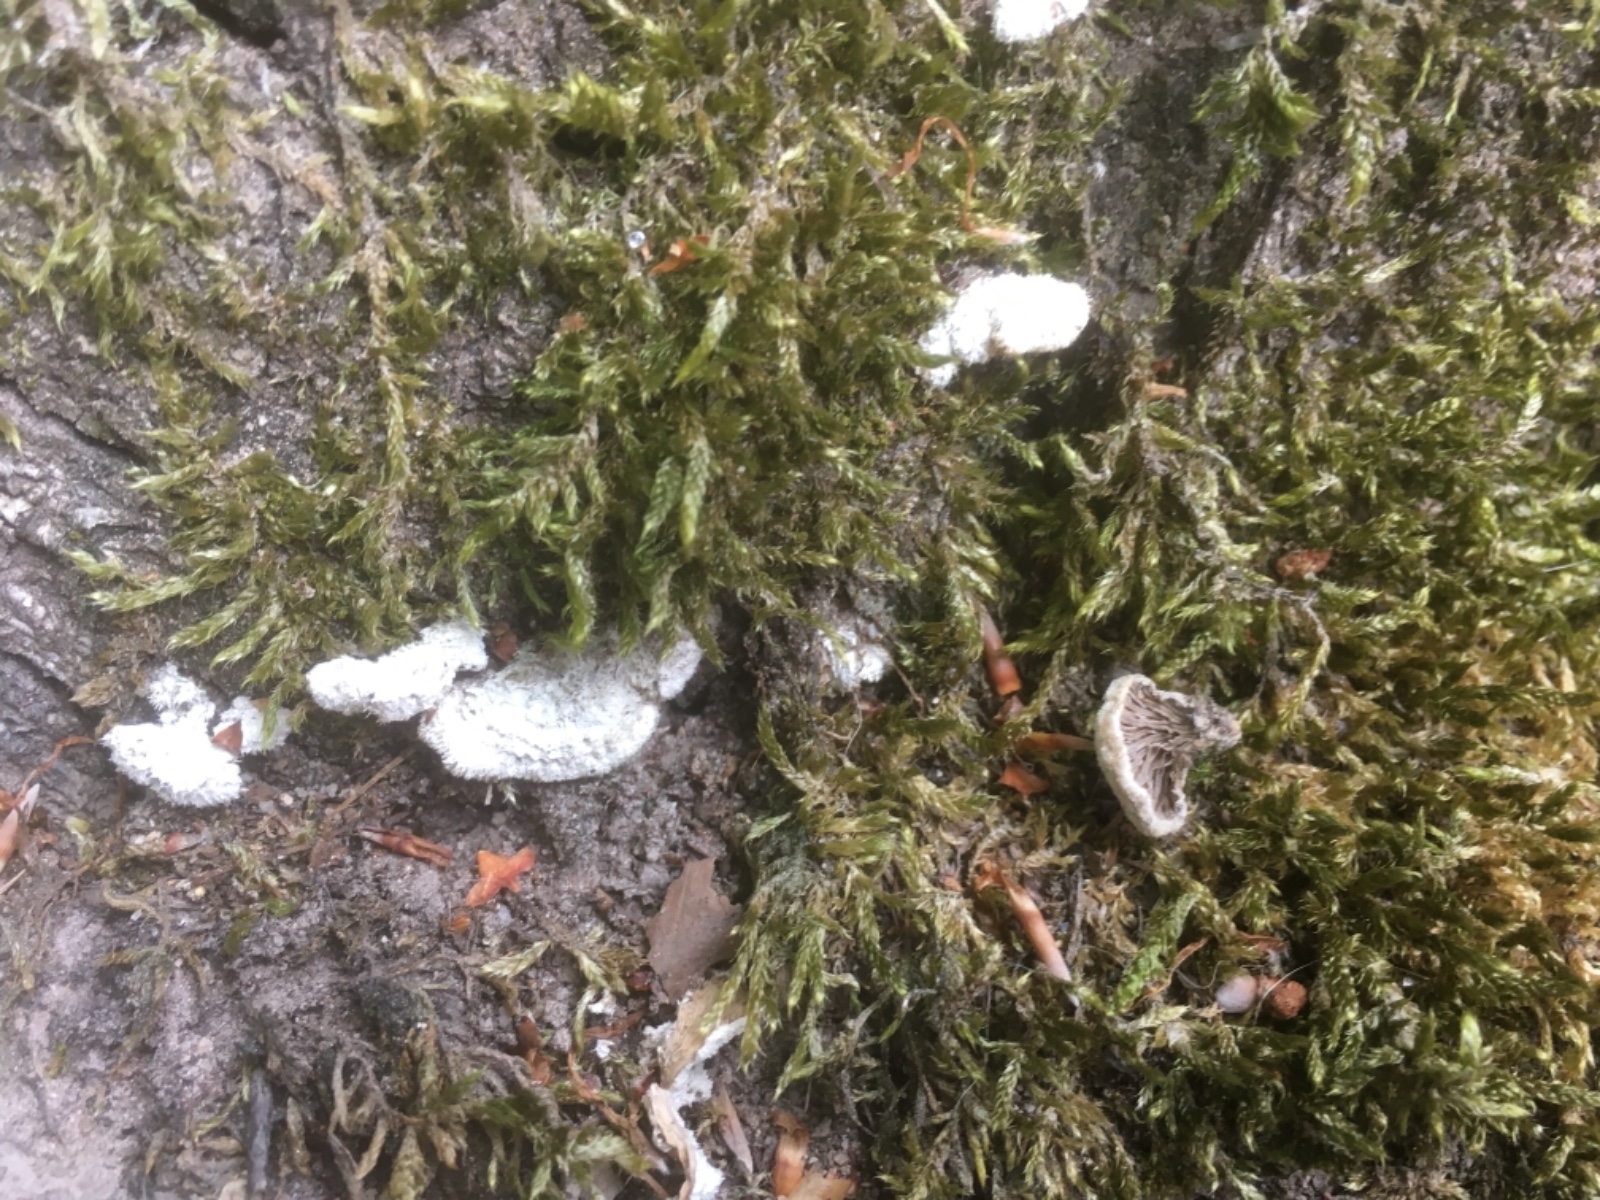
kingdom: Fungi
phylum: Basidiomycota
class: Agaricomycetes
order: Agaricales
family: Schizophyllaceae
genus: Schizophyllum
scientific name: Schizophyllum commune
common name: kløvblad
